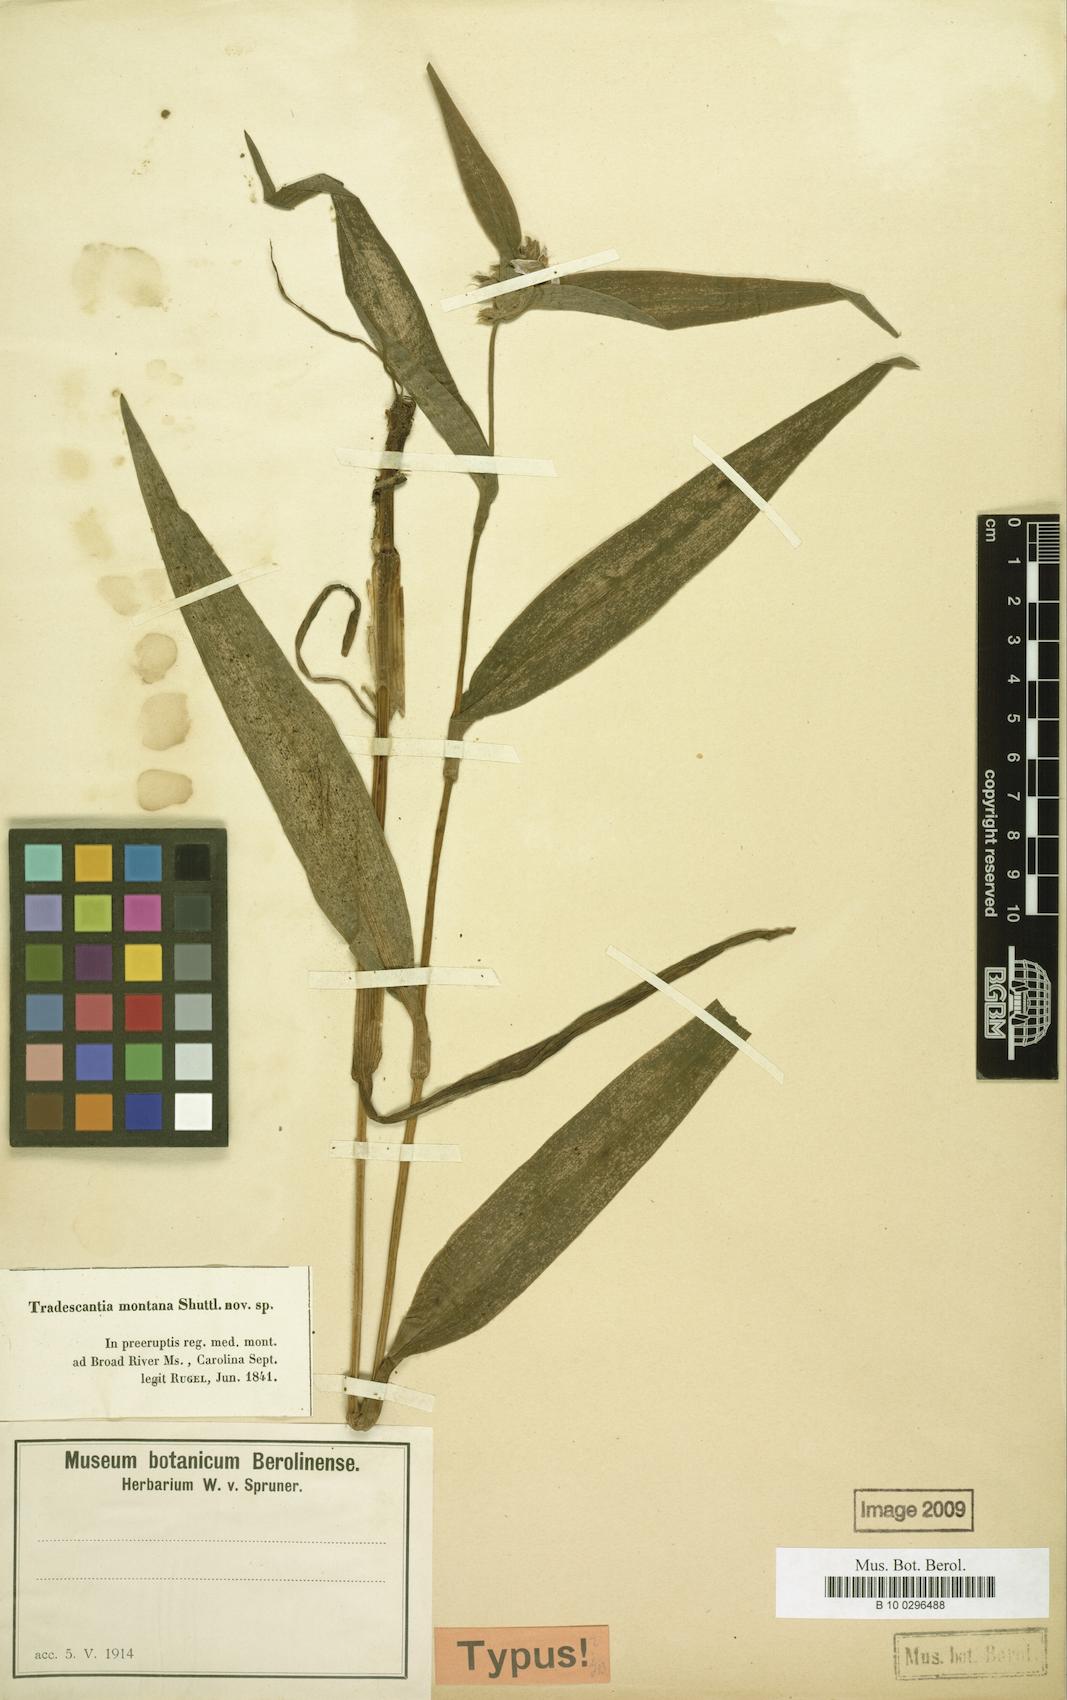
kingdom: Plantae
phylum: Tracheophyta
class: Liliopsida
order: Commelinales
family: Commelinaceae
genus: Tradescantia
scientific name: Tradescantia subaspera
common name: Wide-leaf spiderwort
